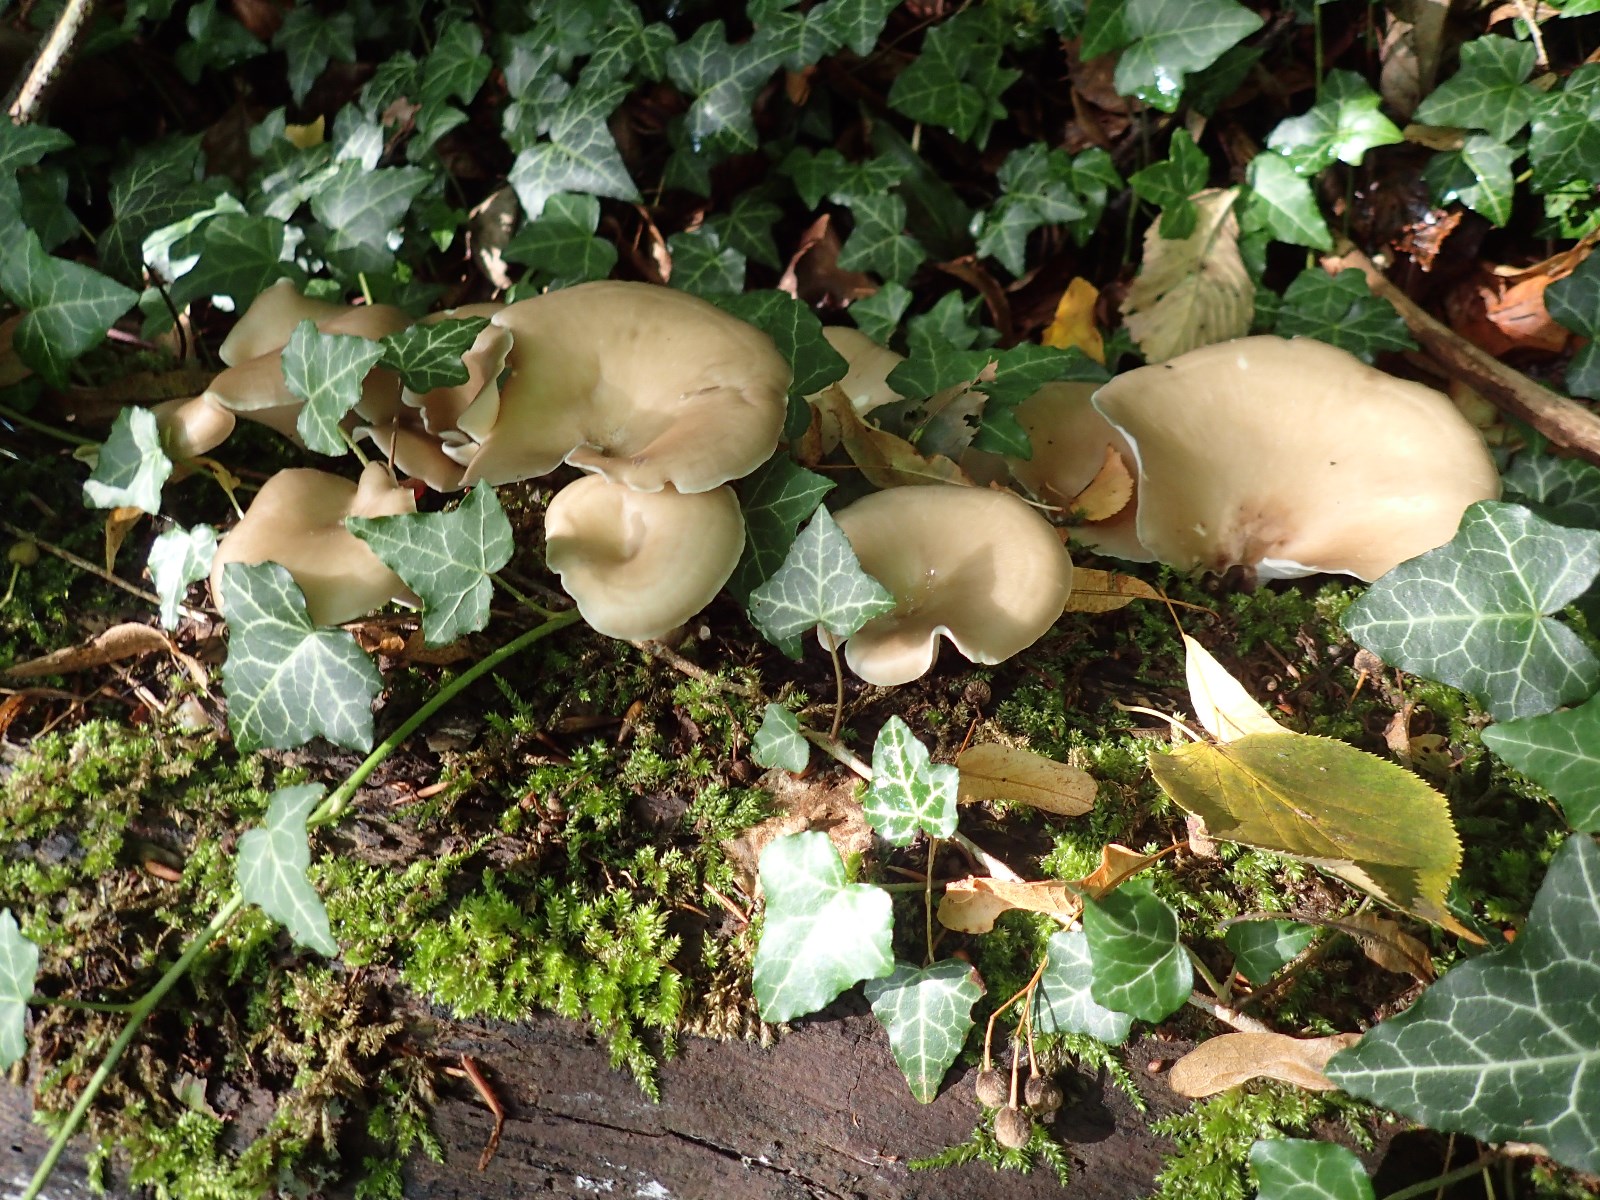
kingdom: Fungi
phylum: Basidiomycota
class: Agaricomycetes
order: Polyporales
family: Polyporaceae
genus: Cerioporus
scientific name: Cerioporus varius
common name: foranderlig stilkporesvamp
